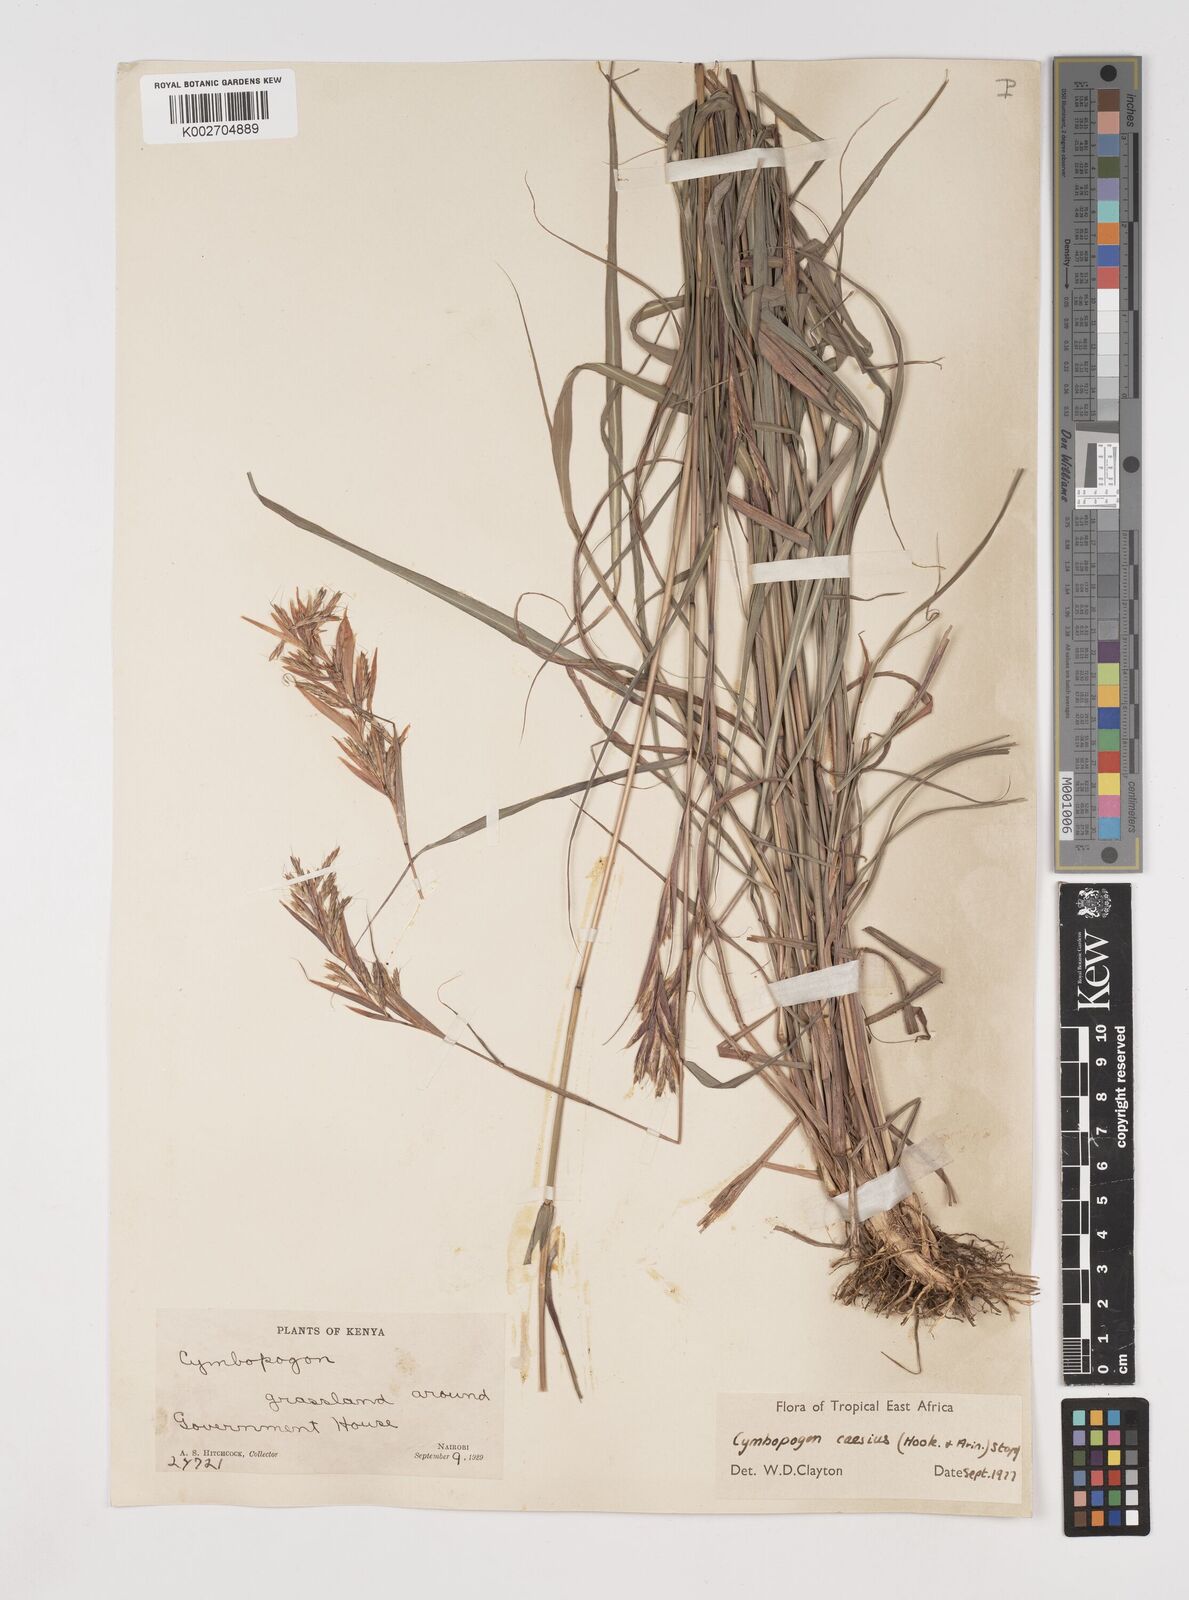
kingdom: Plantae
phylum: Tracheophyta
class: Liliopsida
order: Poales
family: Poaceae
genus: Cymbopogon
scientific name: Cymbopogon caesius
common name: Kachi grass
